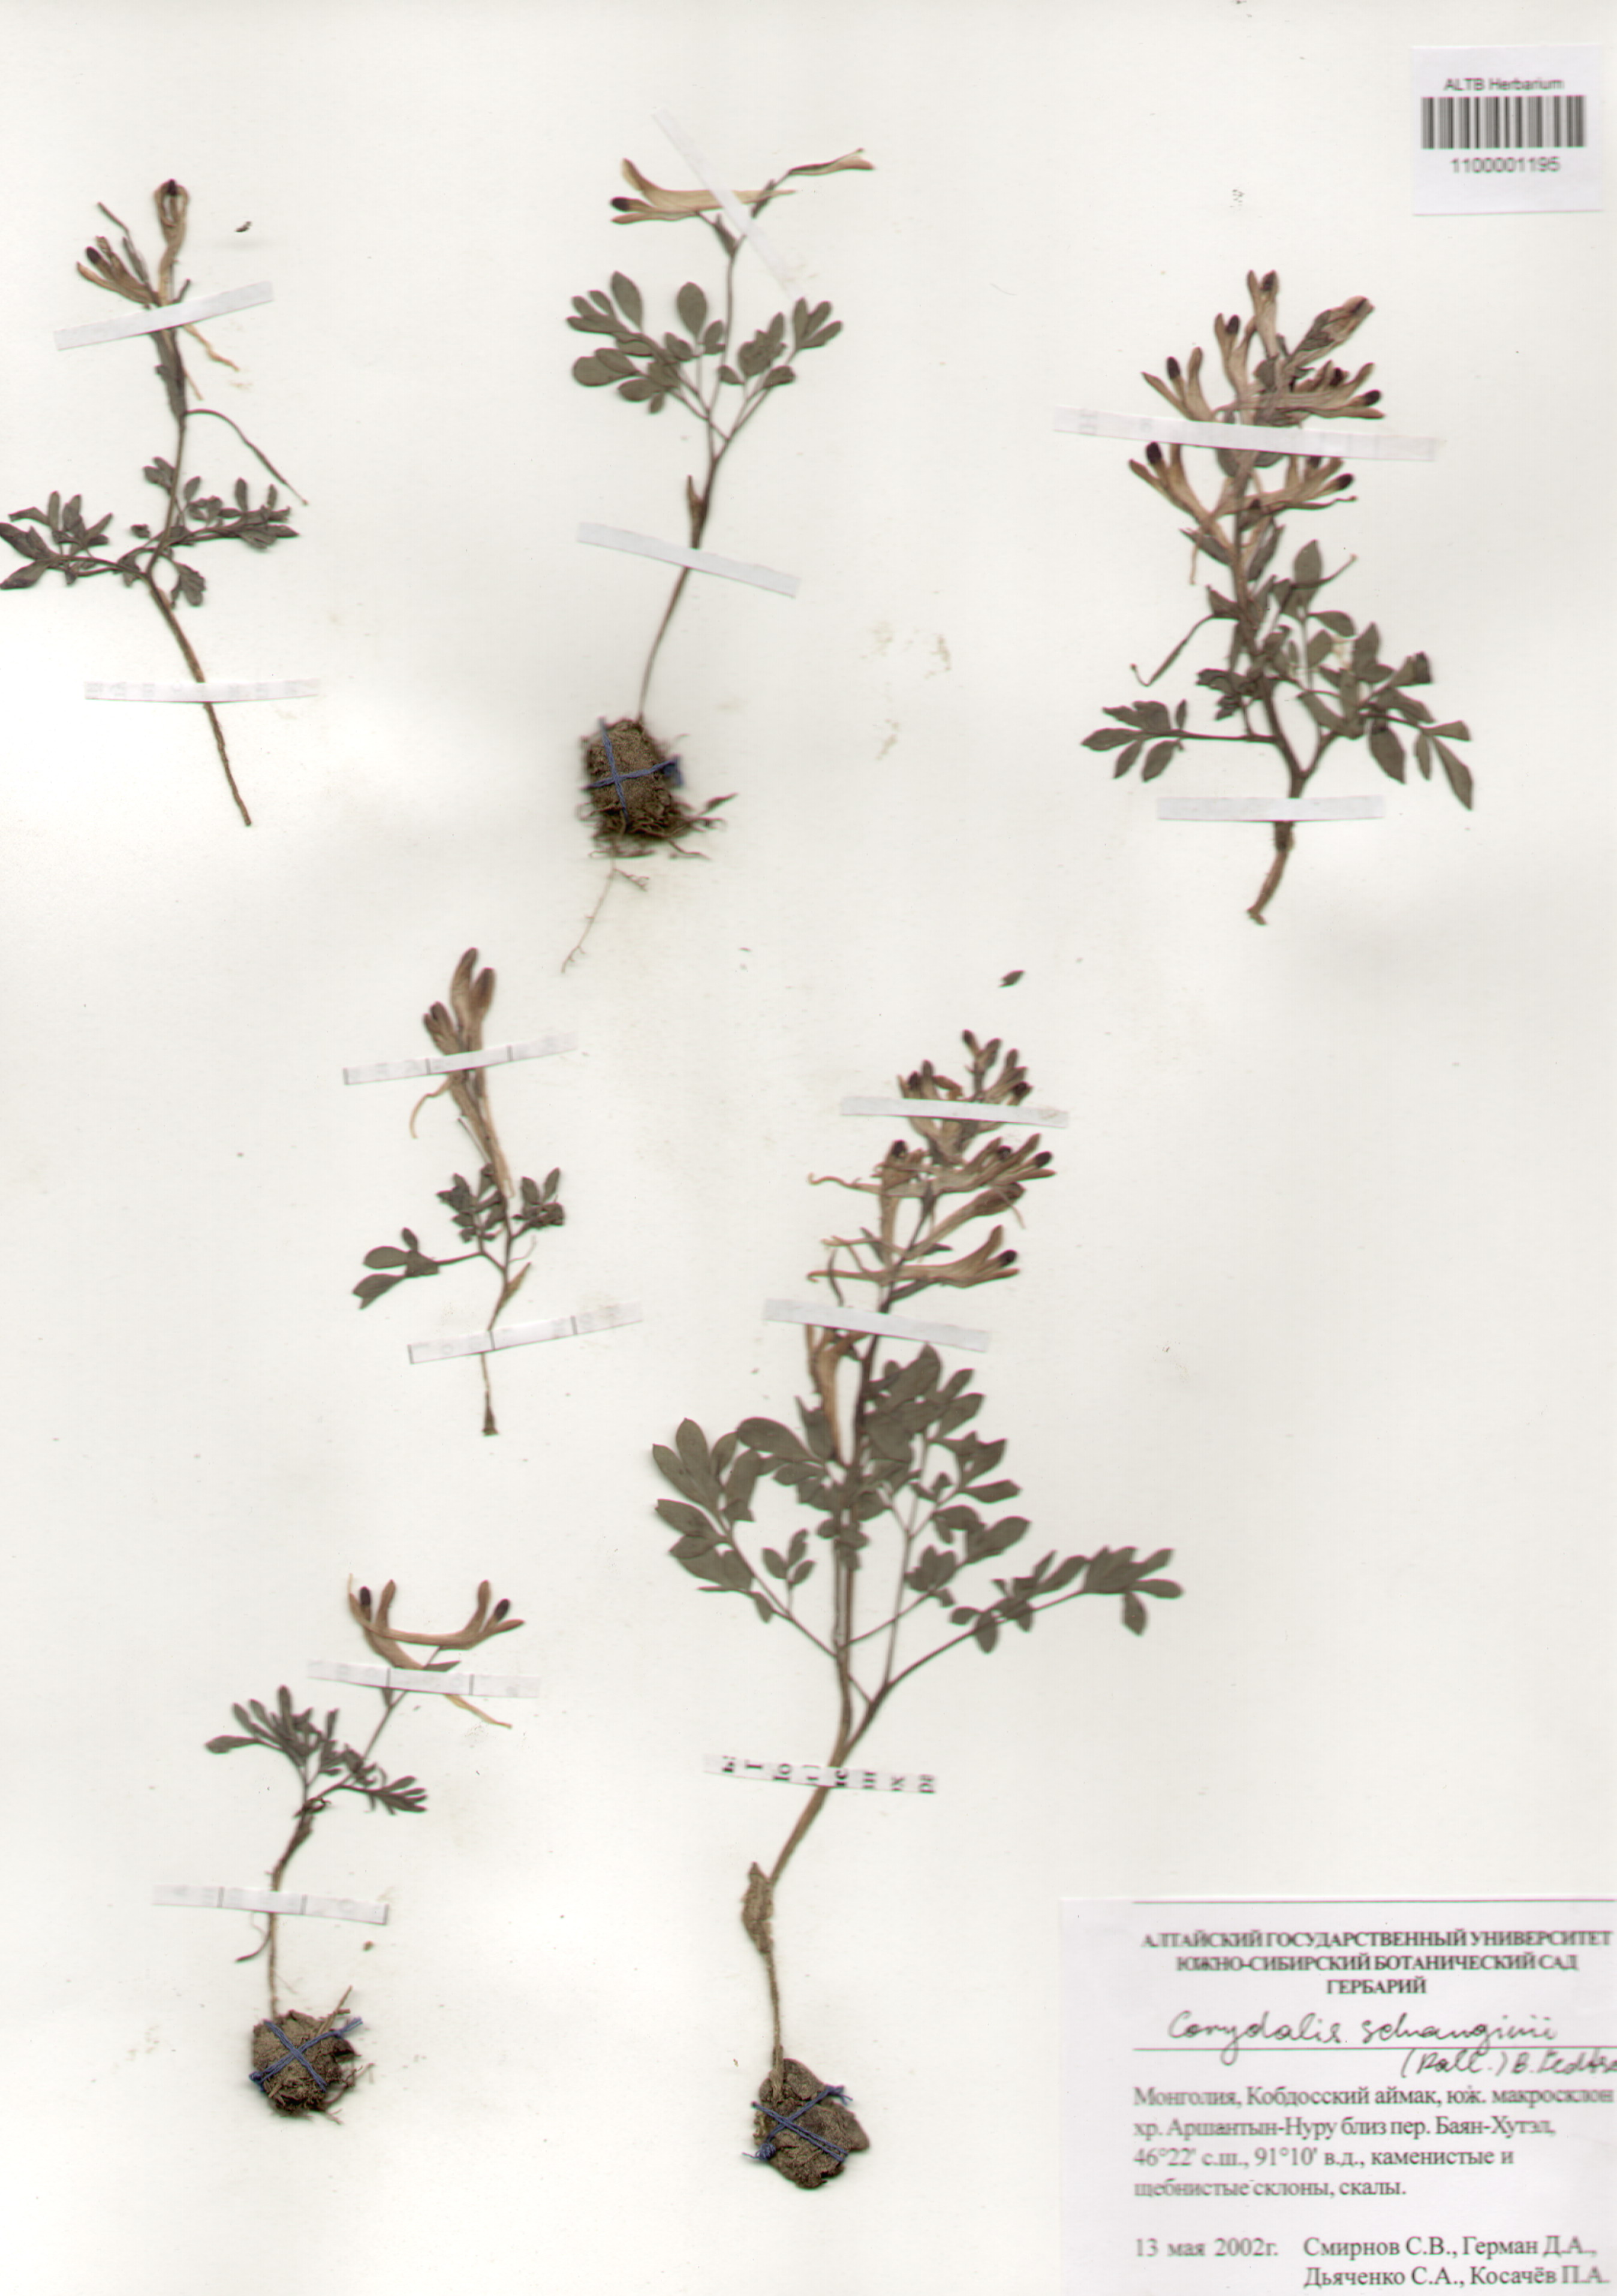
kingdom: Plantae
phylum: Tracheophyta
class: Magnoliopsida
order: Ranunculales
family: Papaveraceae
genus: Corydalis
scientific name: Corydalis schanginii
